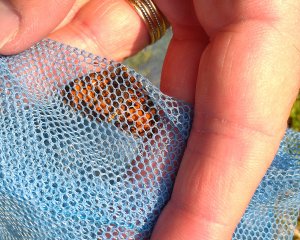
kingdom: Animalia
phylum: Arthropoda
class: Insecta
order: Lepidoptera
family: Nymphalidae
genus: Phyciodes
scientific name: Phyciodes tharos
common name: Northern Crescent
